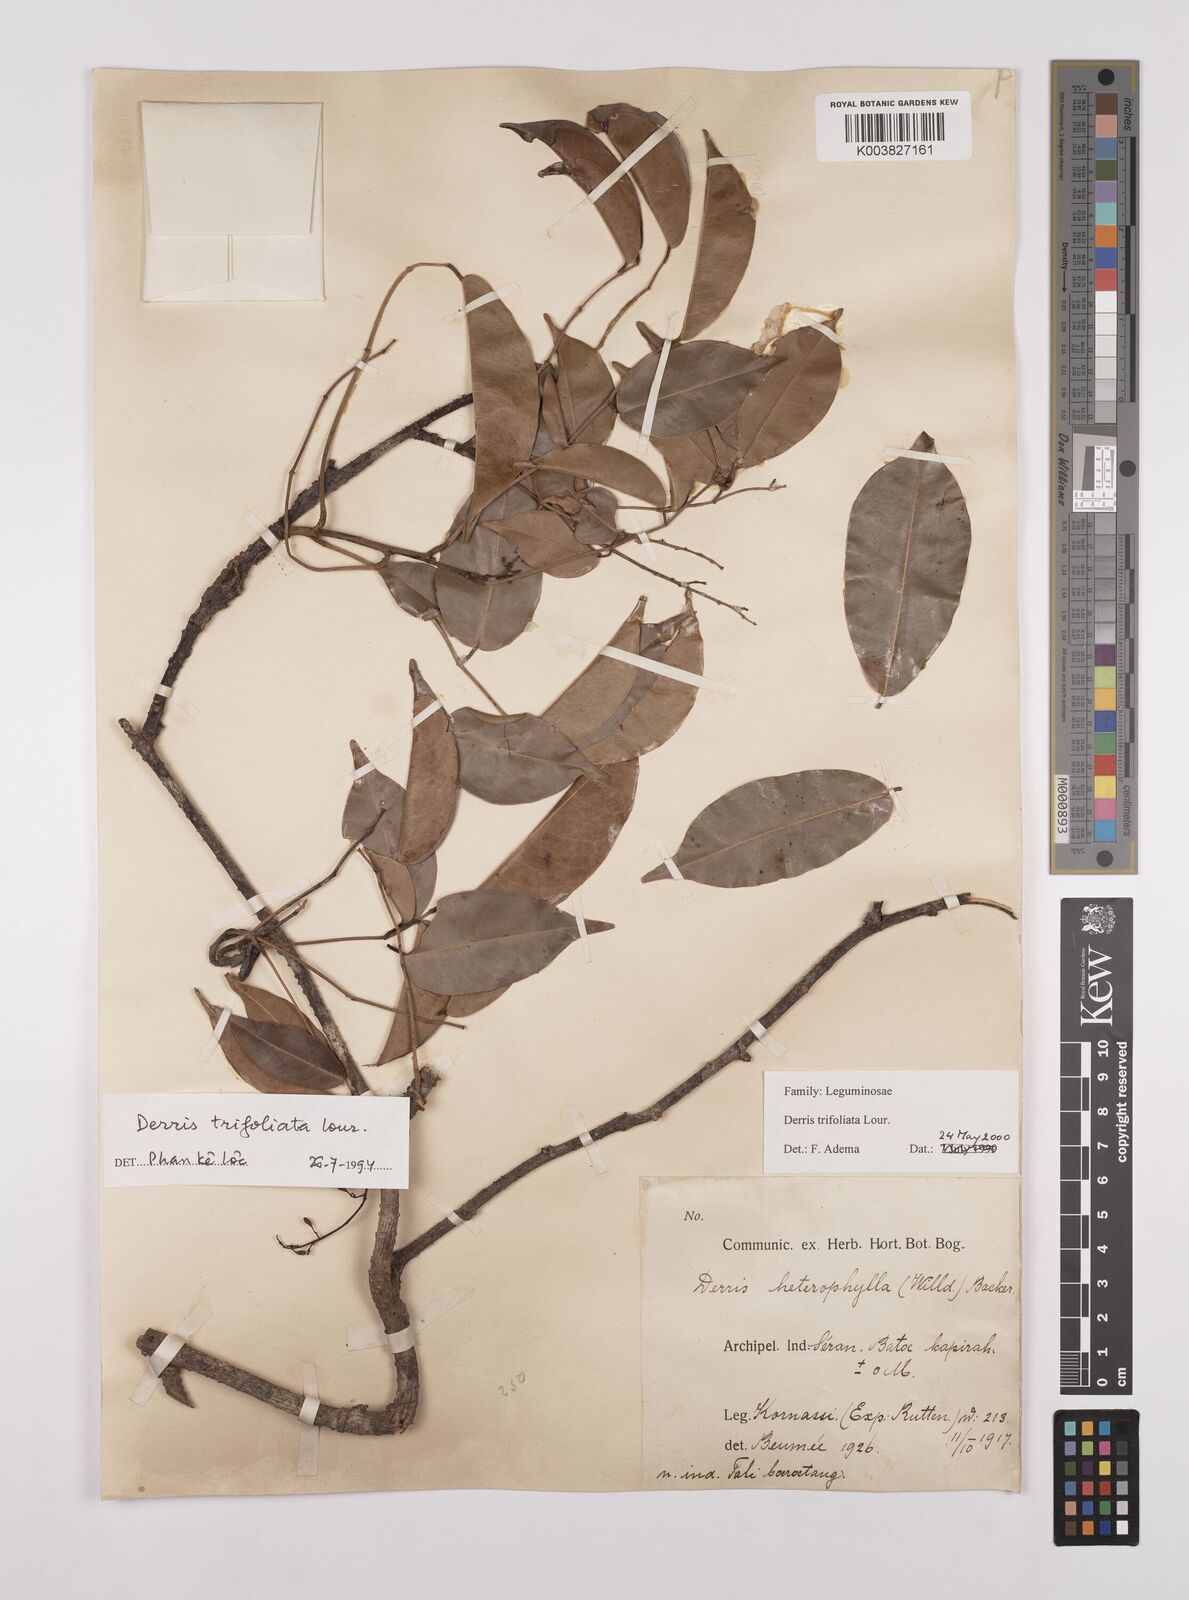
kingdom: Plantae
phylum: Tracheophyta
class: Magnoliopsida
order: Fabales
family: Fabaceae
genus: Derris
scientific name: Derris trifoliata
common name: Three-leaf derris
